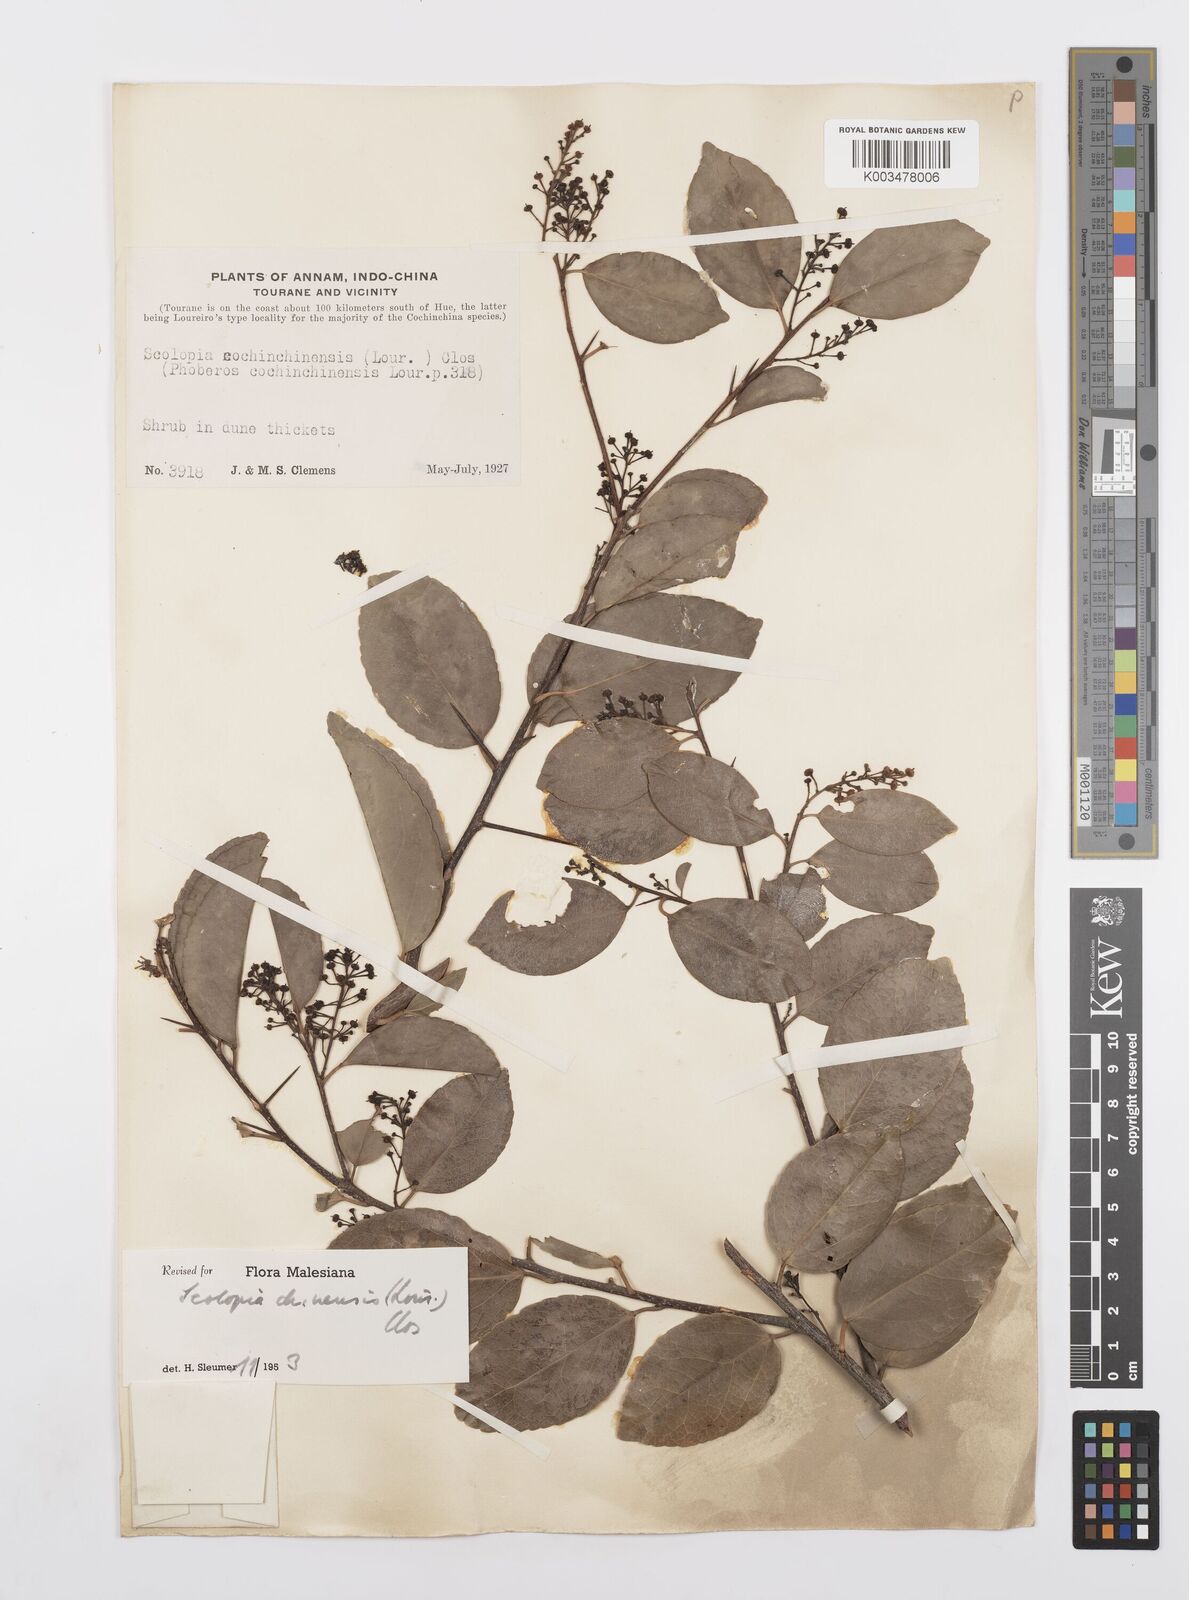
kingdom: Plantae
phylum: Tracheophyta
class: Magnoliopsida
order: Malpighiales
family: Salicaceae
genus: Scolopia
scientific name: Scolopia chinensis
